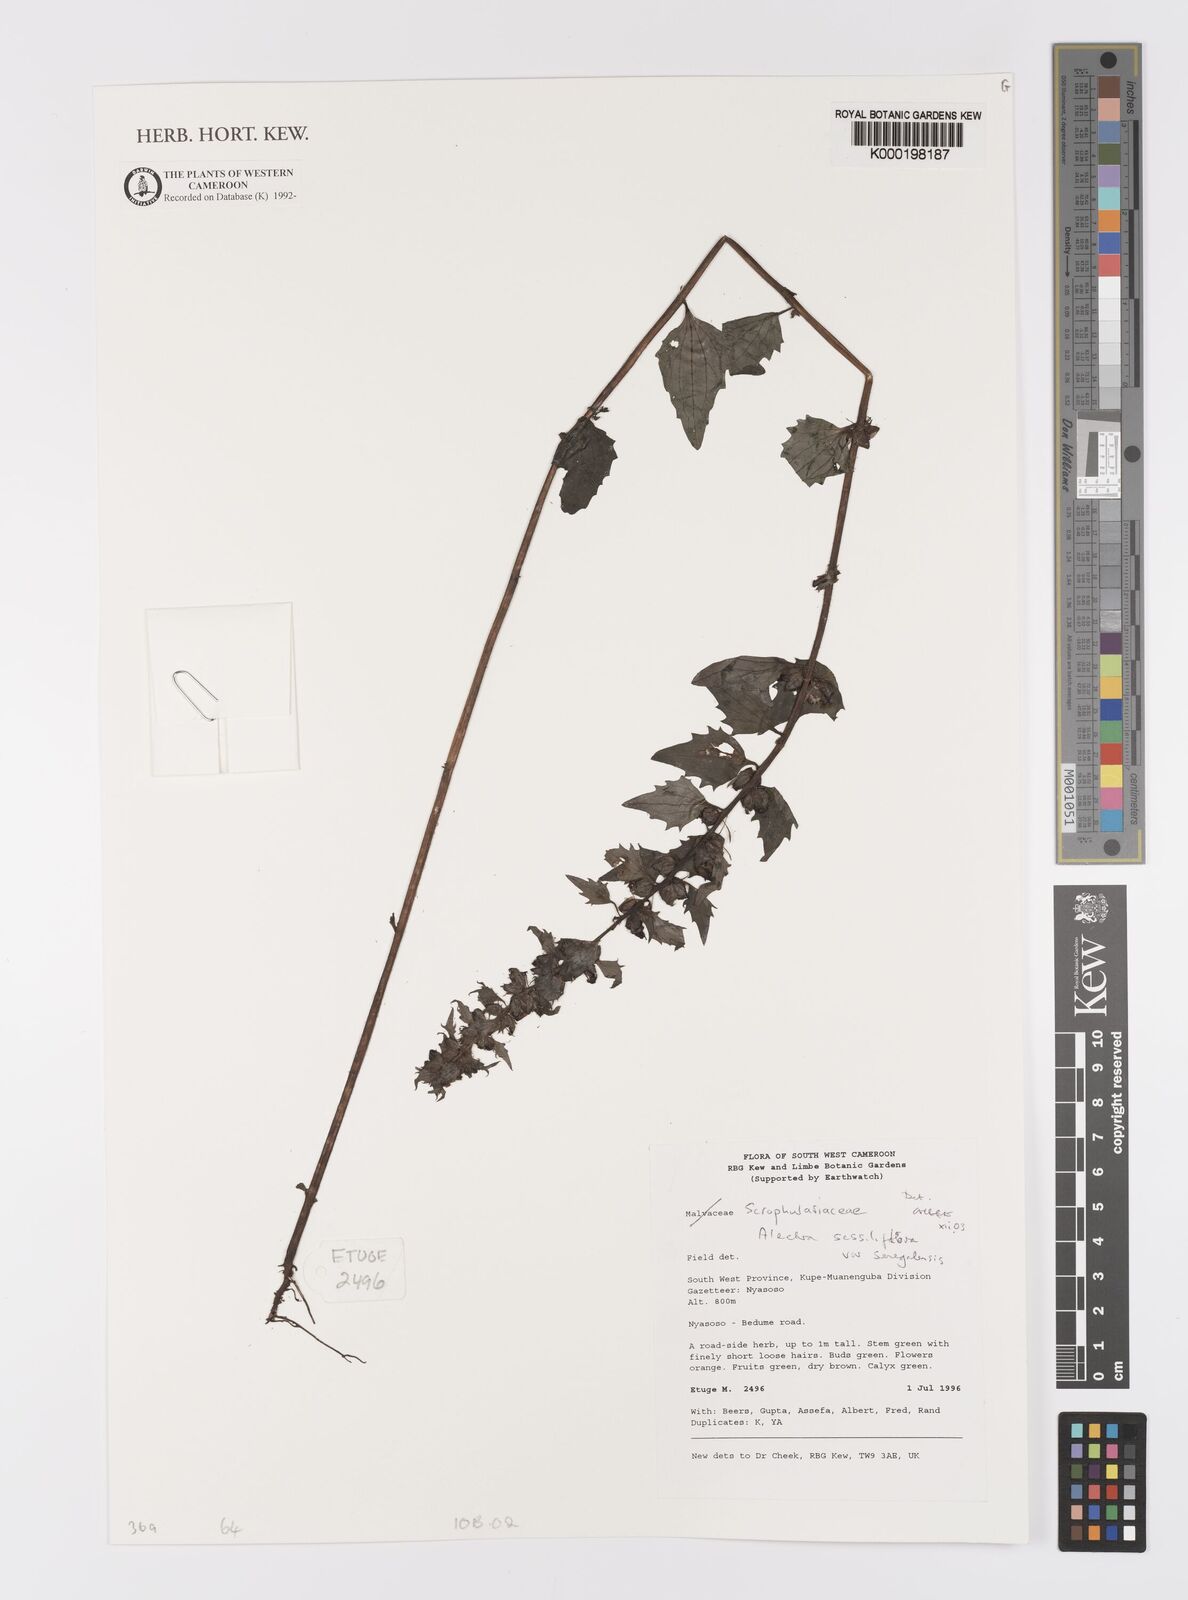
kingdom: Plantae
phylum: Tracheophyta
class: Magnoliopsida
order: Lamiales
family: Orobanchaceae
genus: Alectra
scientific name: Alectra sessiliflora
